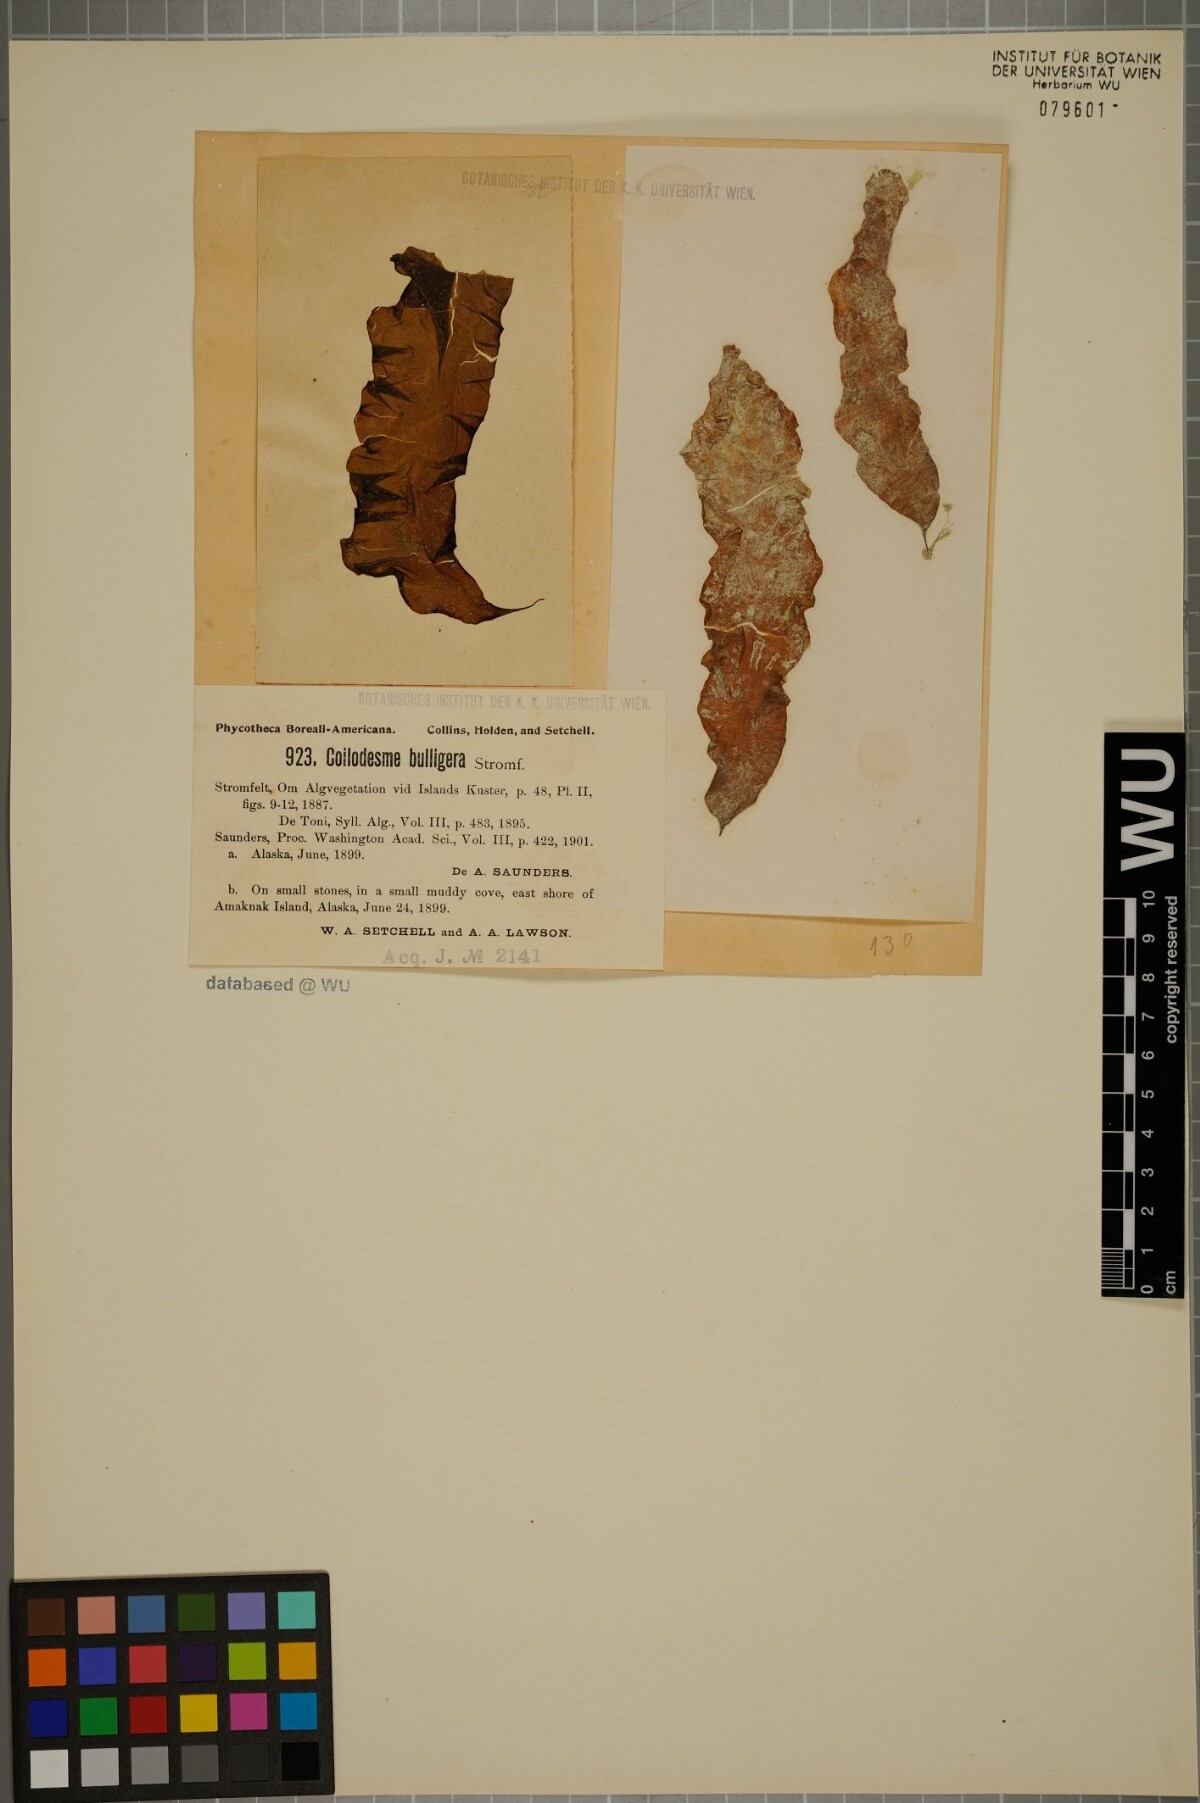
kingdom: Chromista
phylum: Ochrophyta
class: Phaeophyceae
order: Ectocarpales
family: Chordariaceae
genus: Coilodesme
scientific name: Coilodesme bulligera
